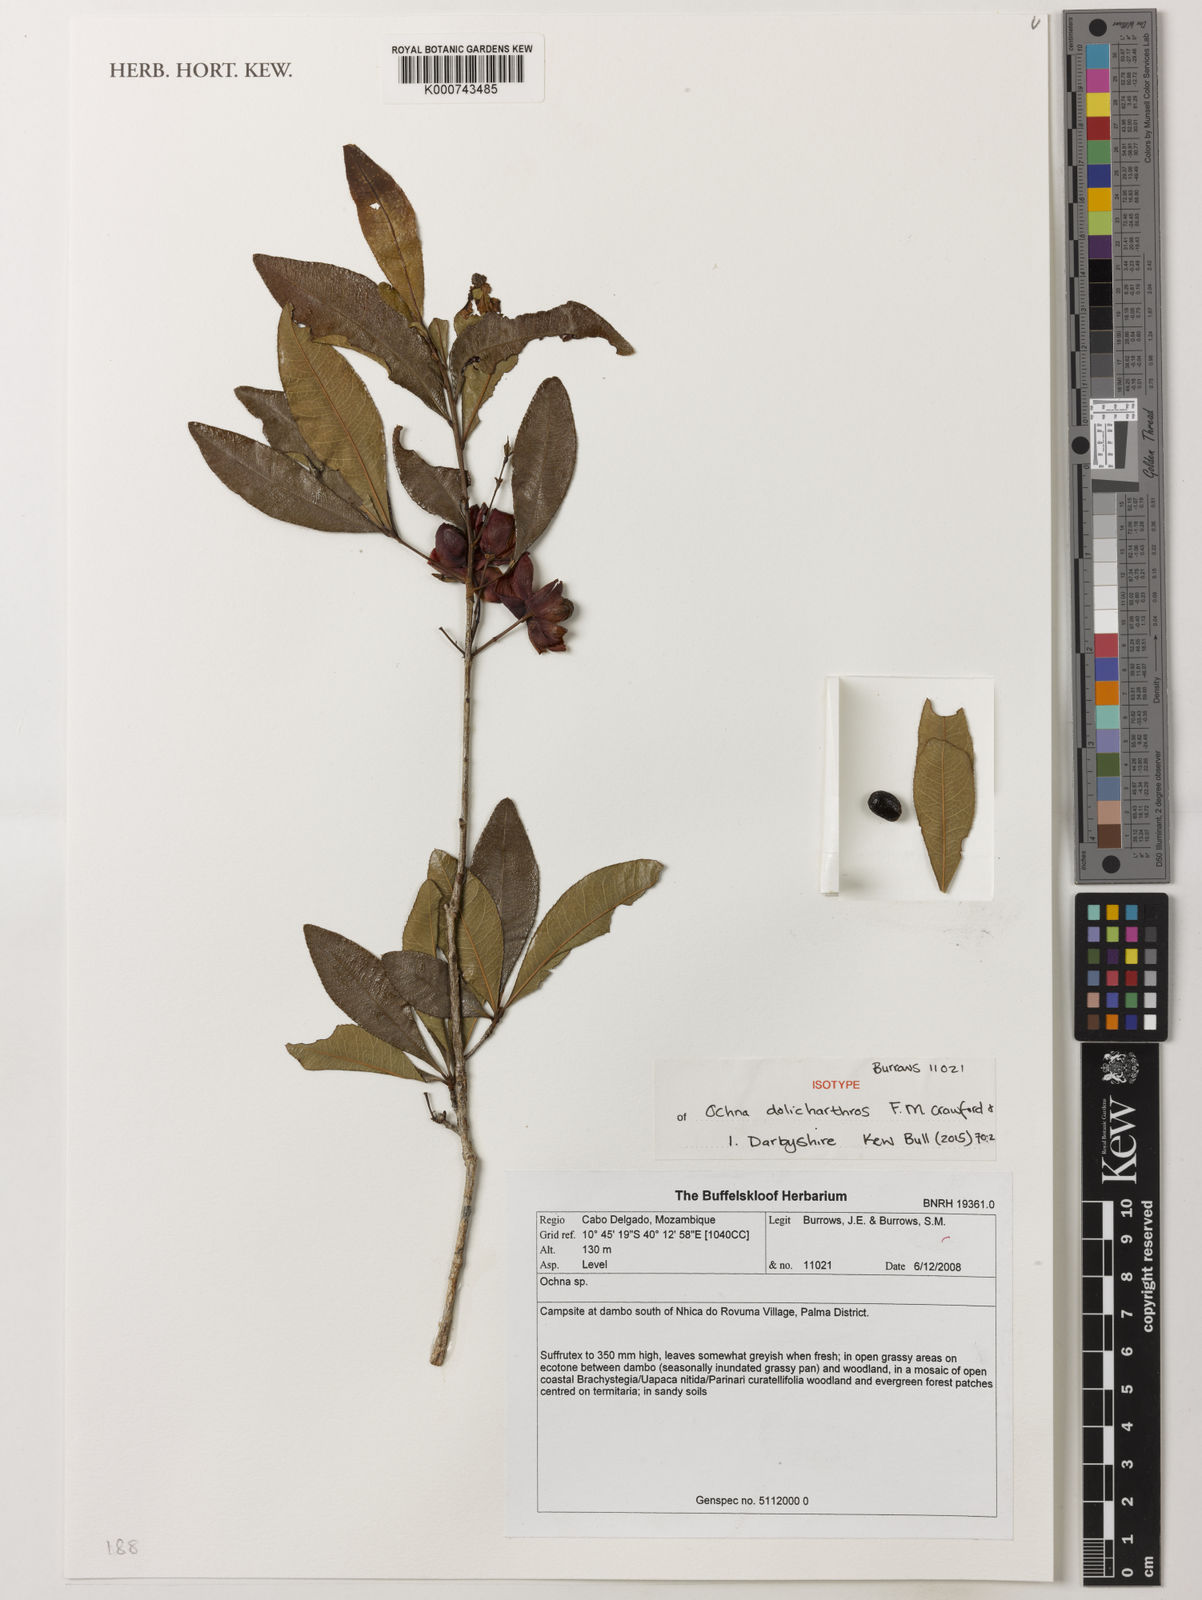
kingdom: Plantae
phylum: Tracheophyta
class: Magnoliopsida
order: Malpighiales
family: Ochnaceae
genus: Ochna
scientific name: Ochna dolicharthros
